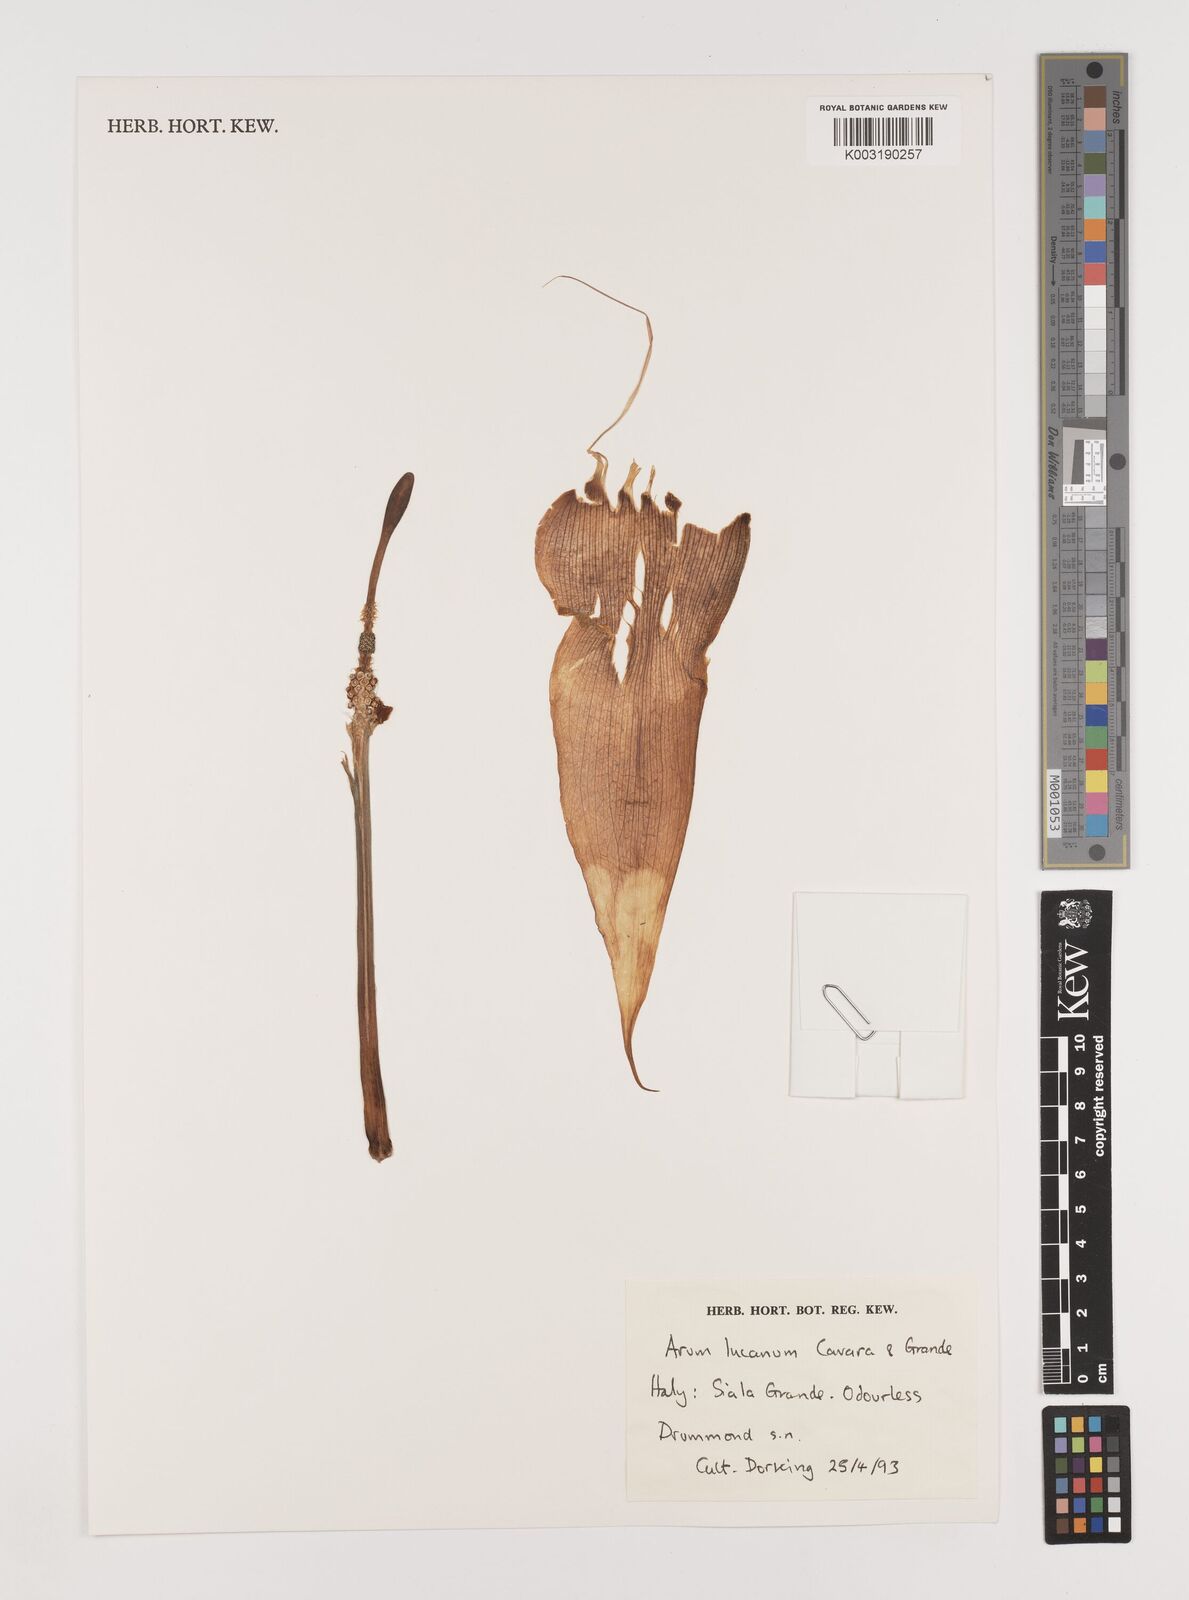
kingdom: Plantae
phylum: Tracheophyta
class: Liliopsida
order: Alismatales
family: Araceae
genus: Arum
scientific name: Arum cylindraceum
